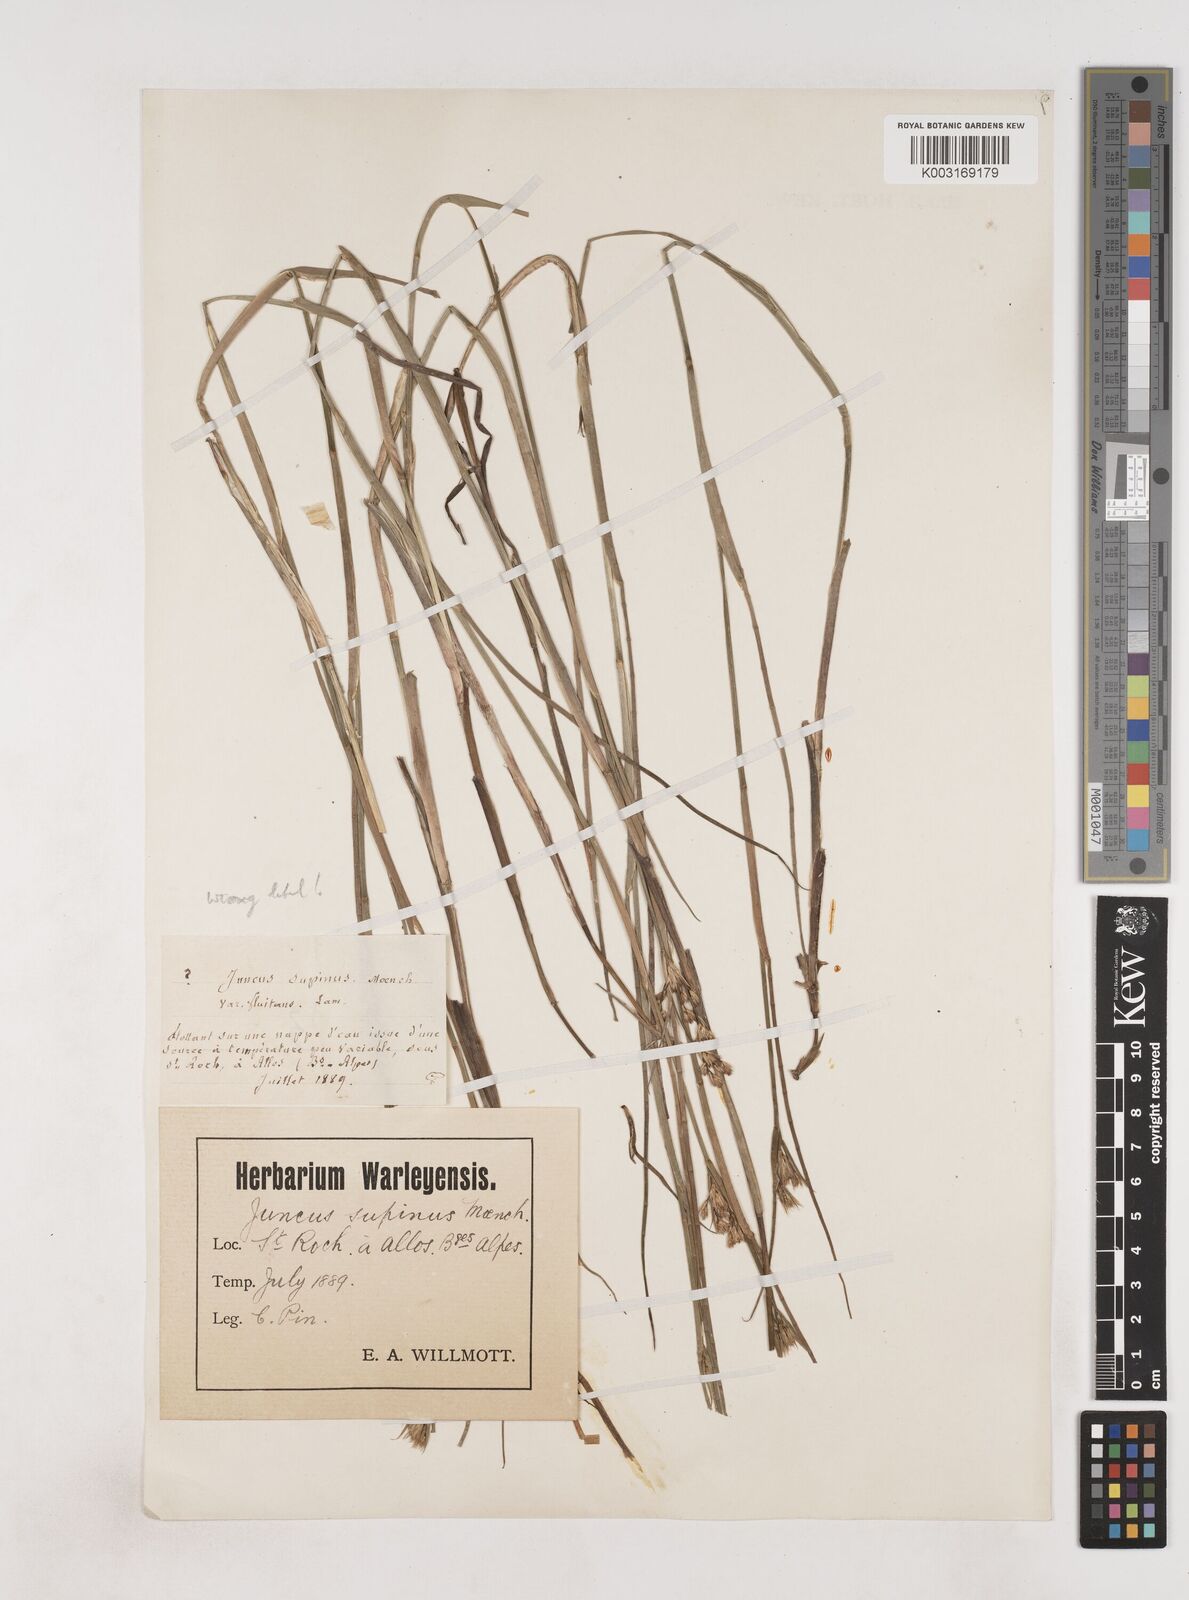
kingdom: Plantae
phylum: Tracheophyta
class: Liliopsida
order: Poales
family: Juncaceae
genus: Juncus
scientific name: Juncus bulbosus
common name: Bulbous rush
